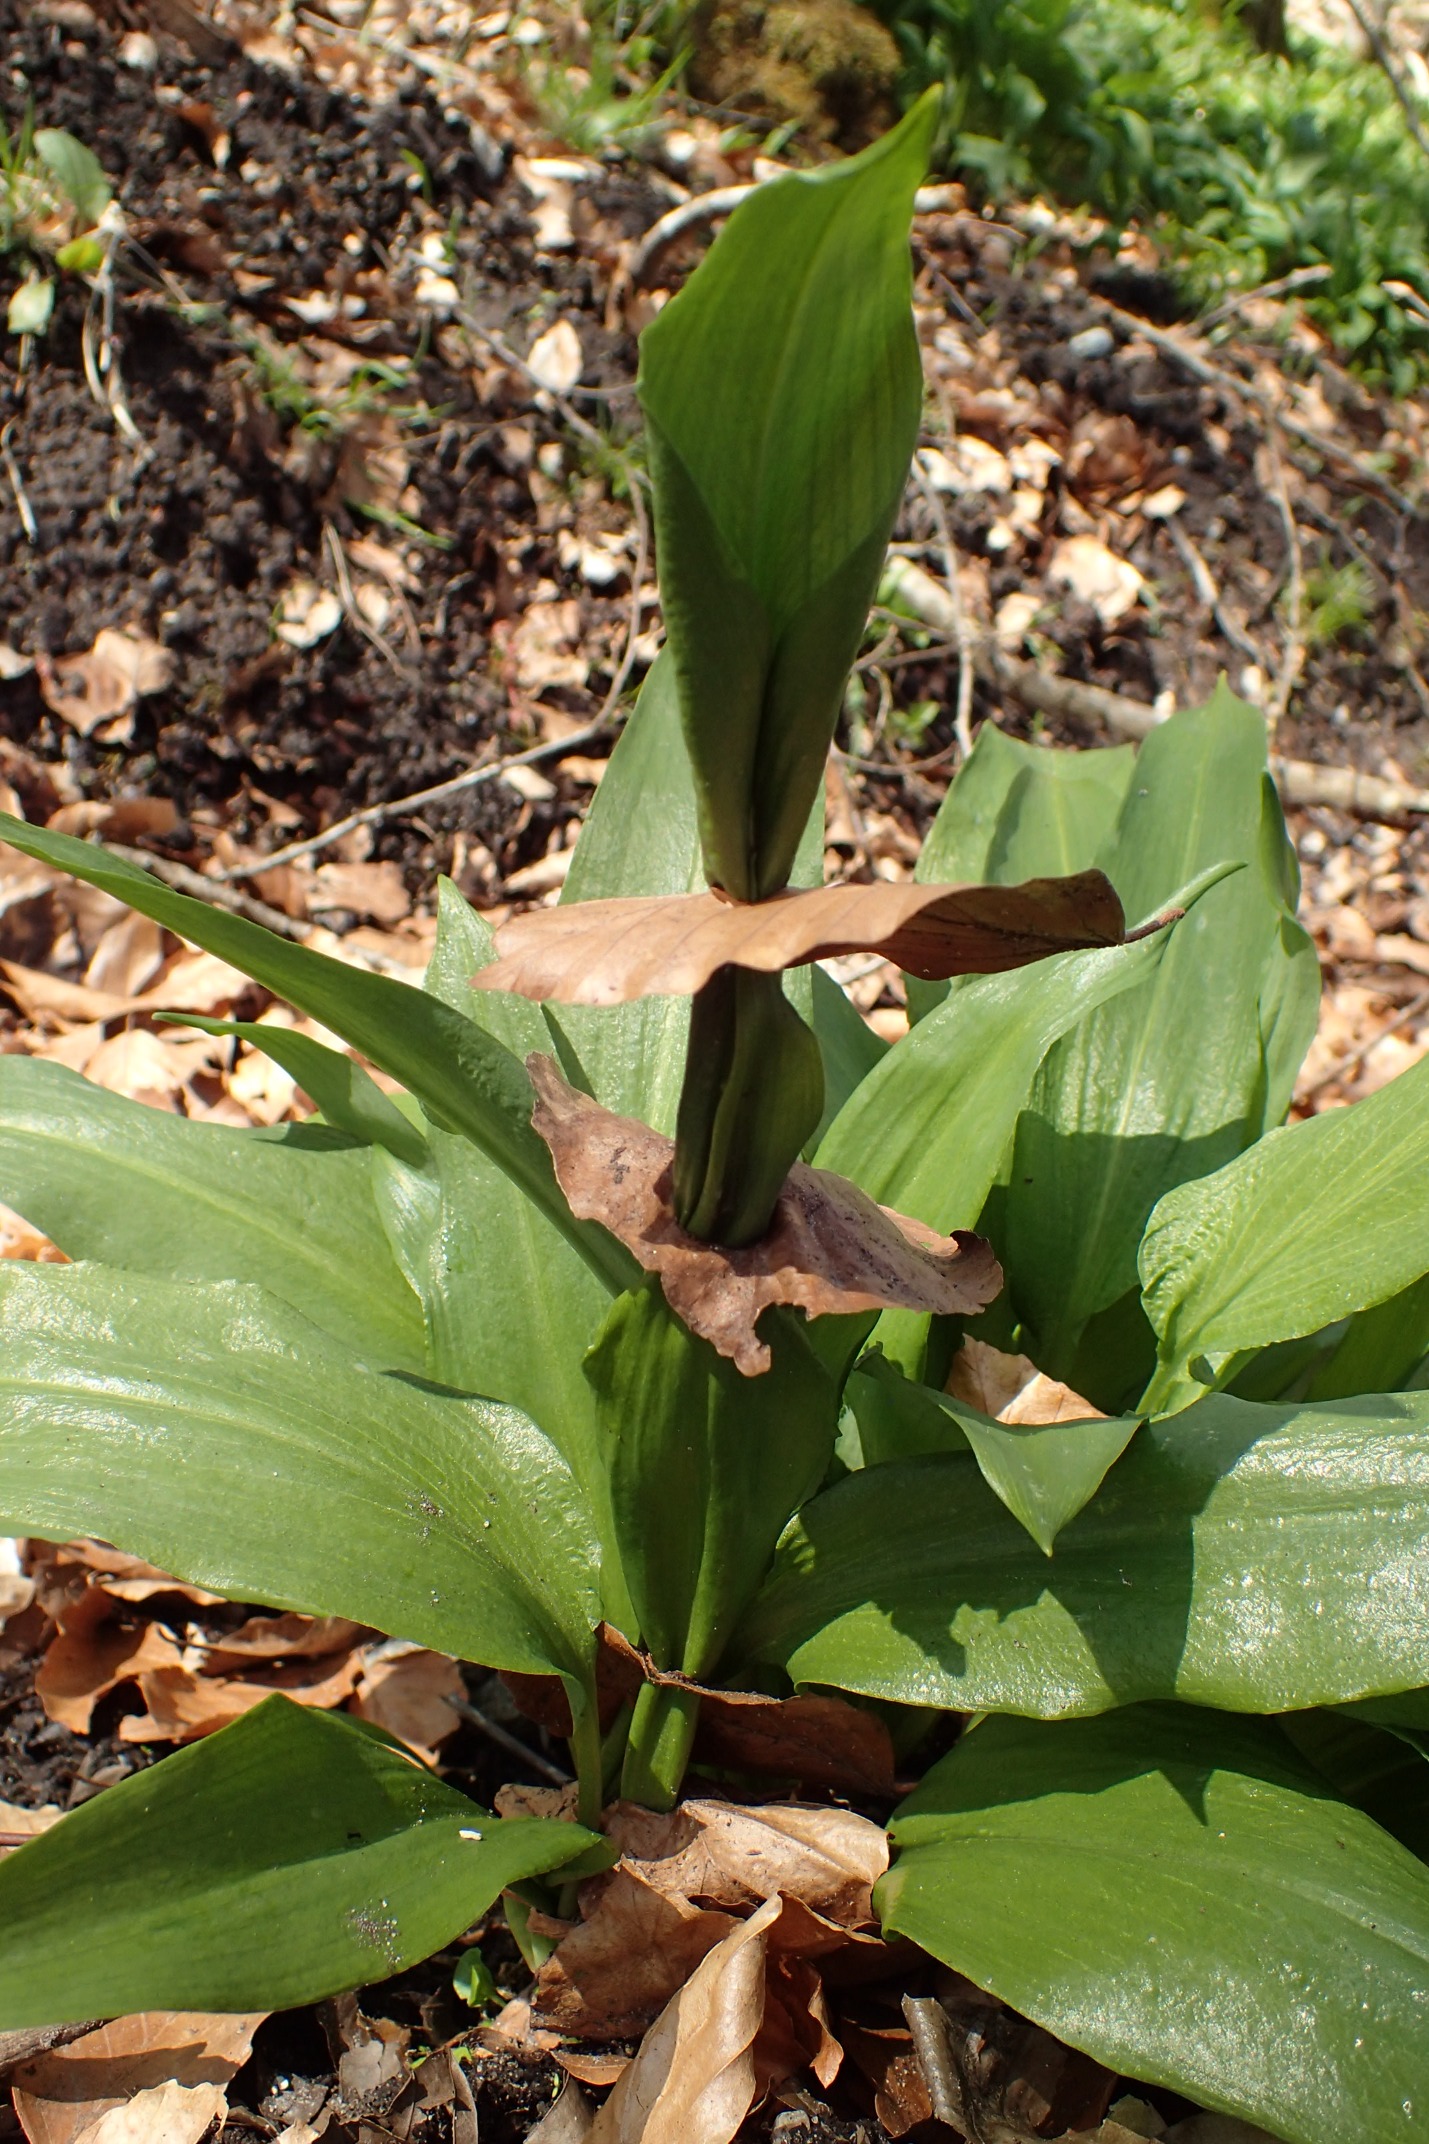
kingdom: Plantae
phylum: Tracheophyta
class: Liliopsida
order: Asparagales
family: Amaryllidaceae
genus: Allium
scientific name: Allium ursinum
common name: Rams-løg
